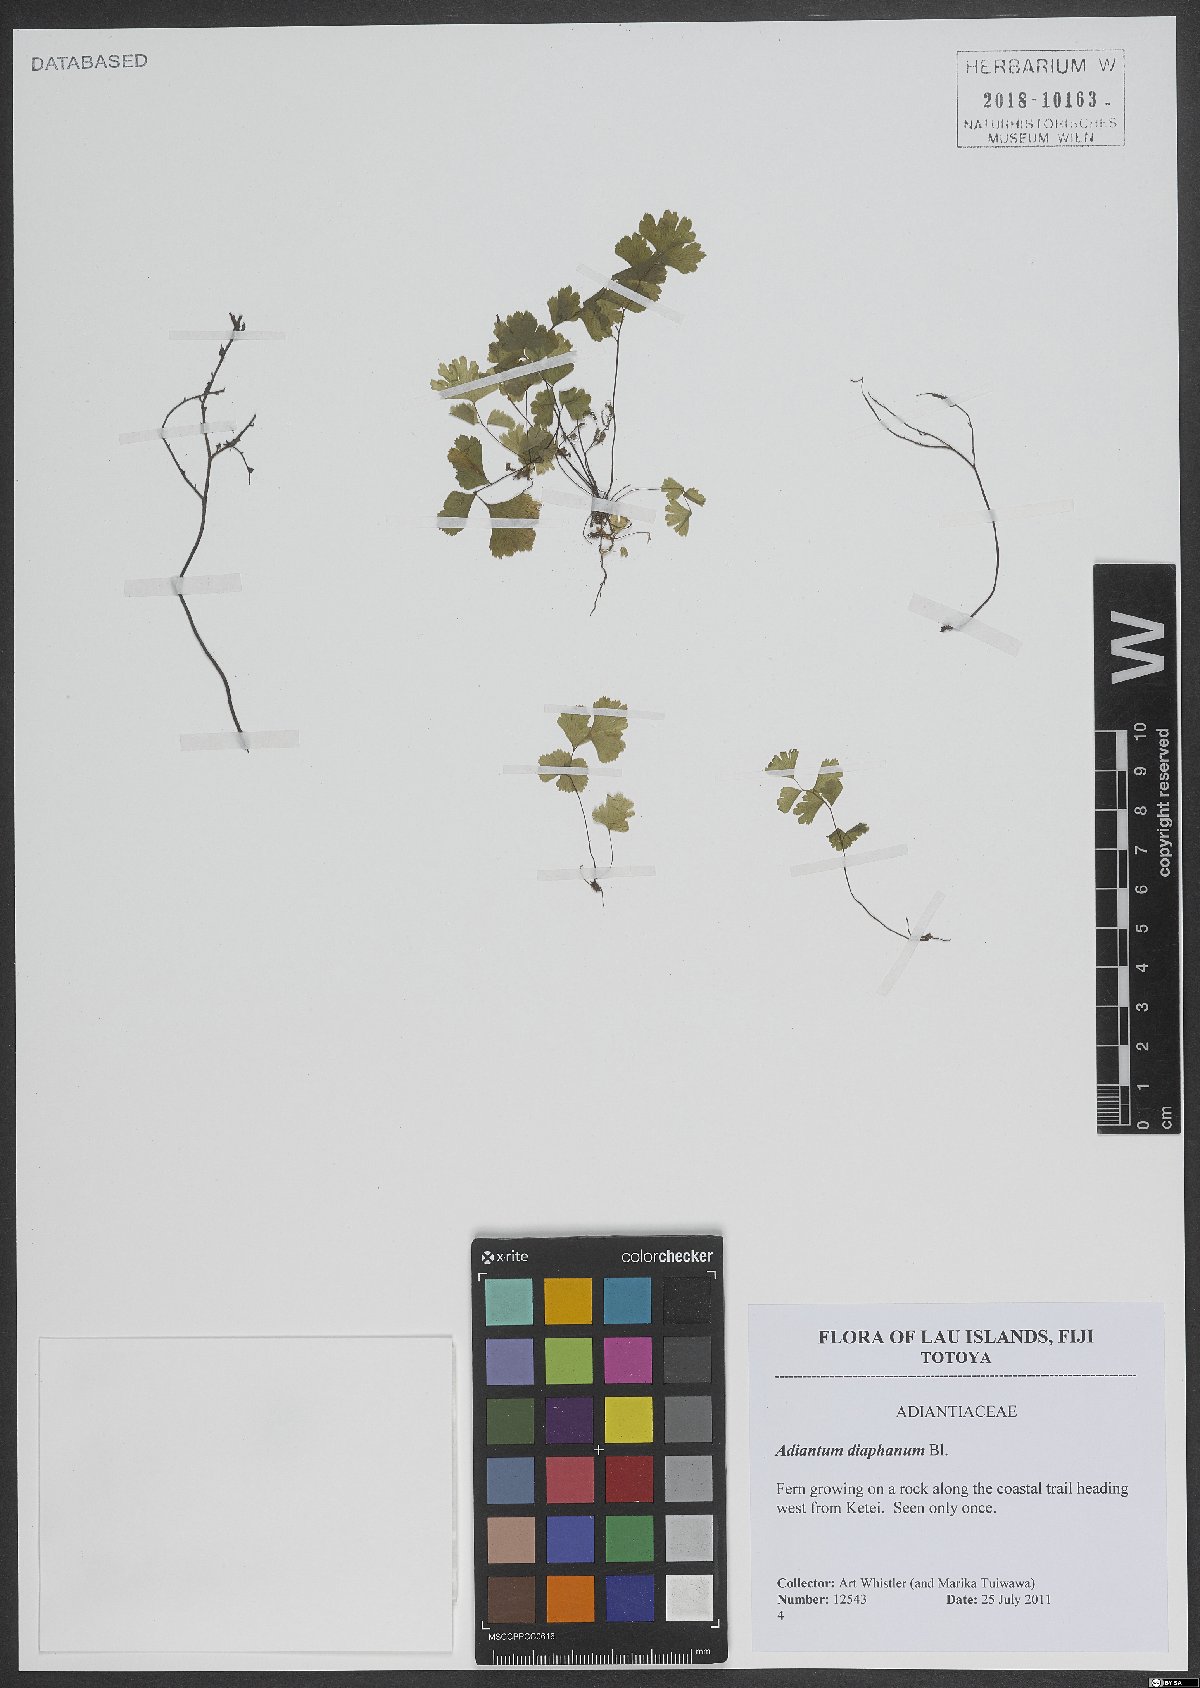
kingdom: Plantae
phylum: Tracheophyta
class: Polypodiopsida
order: Polypodiales
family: Pteridaceae
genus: Adiantum
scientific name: Adiantum diaphanum
